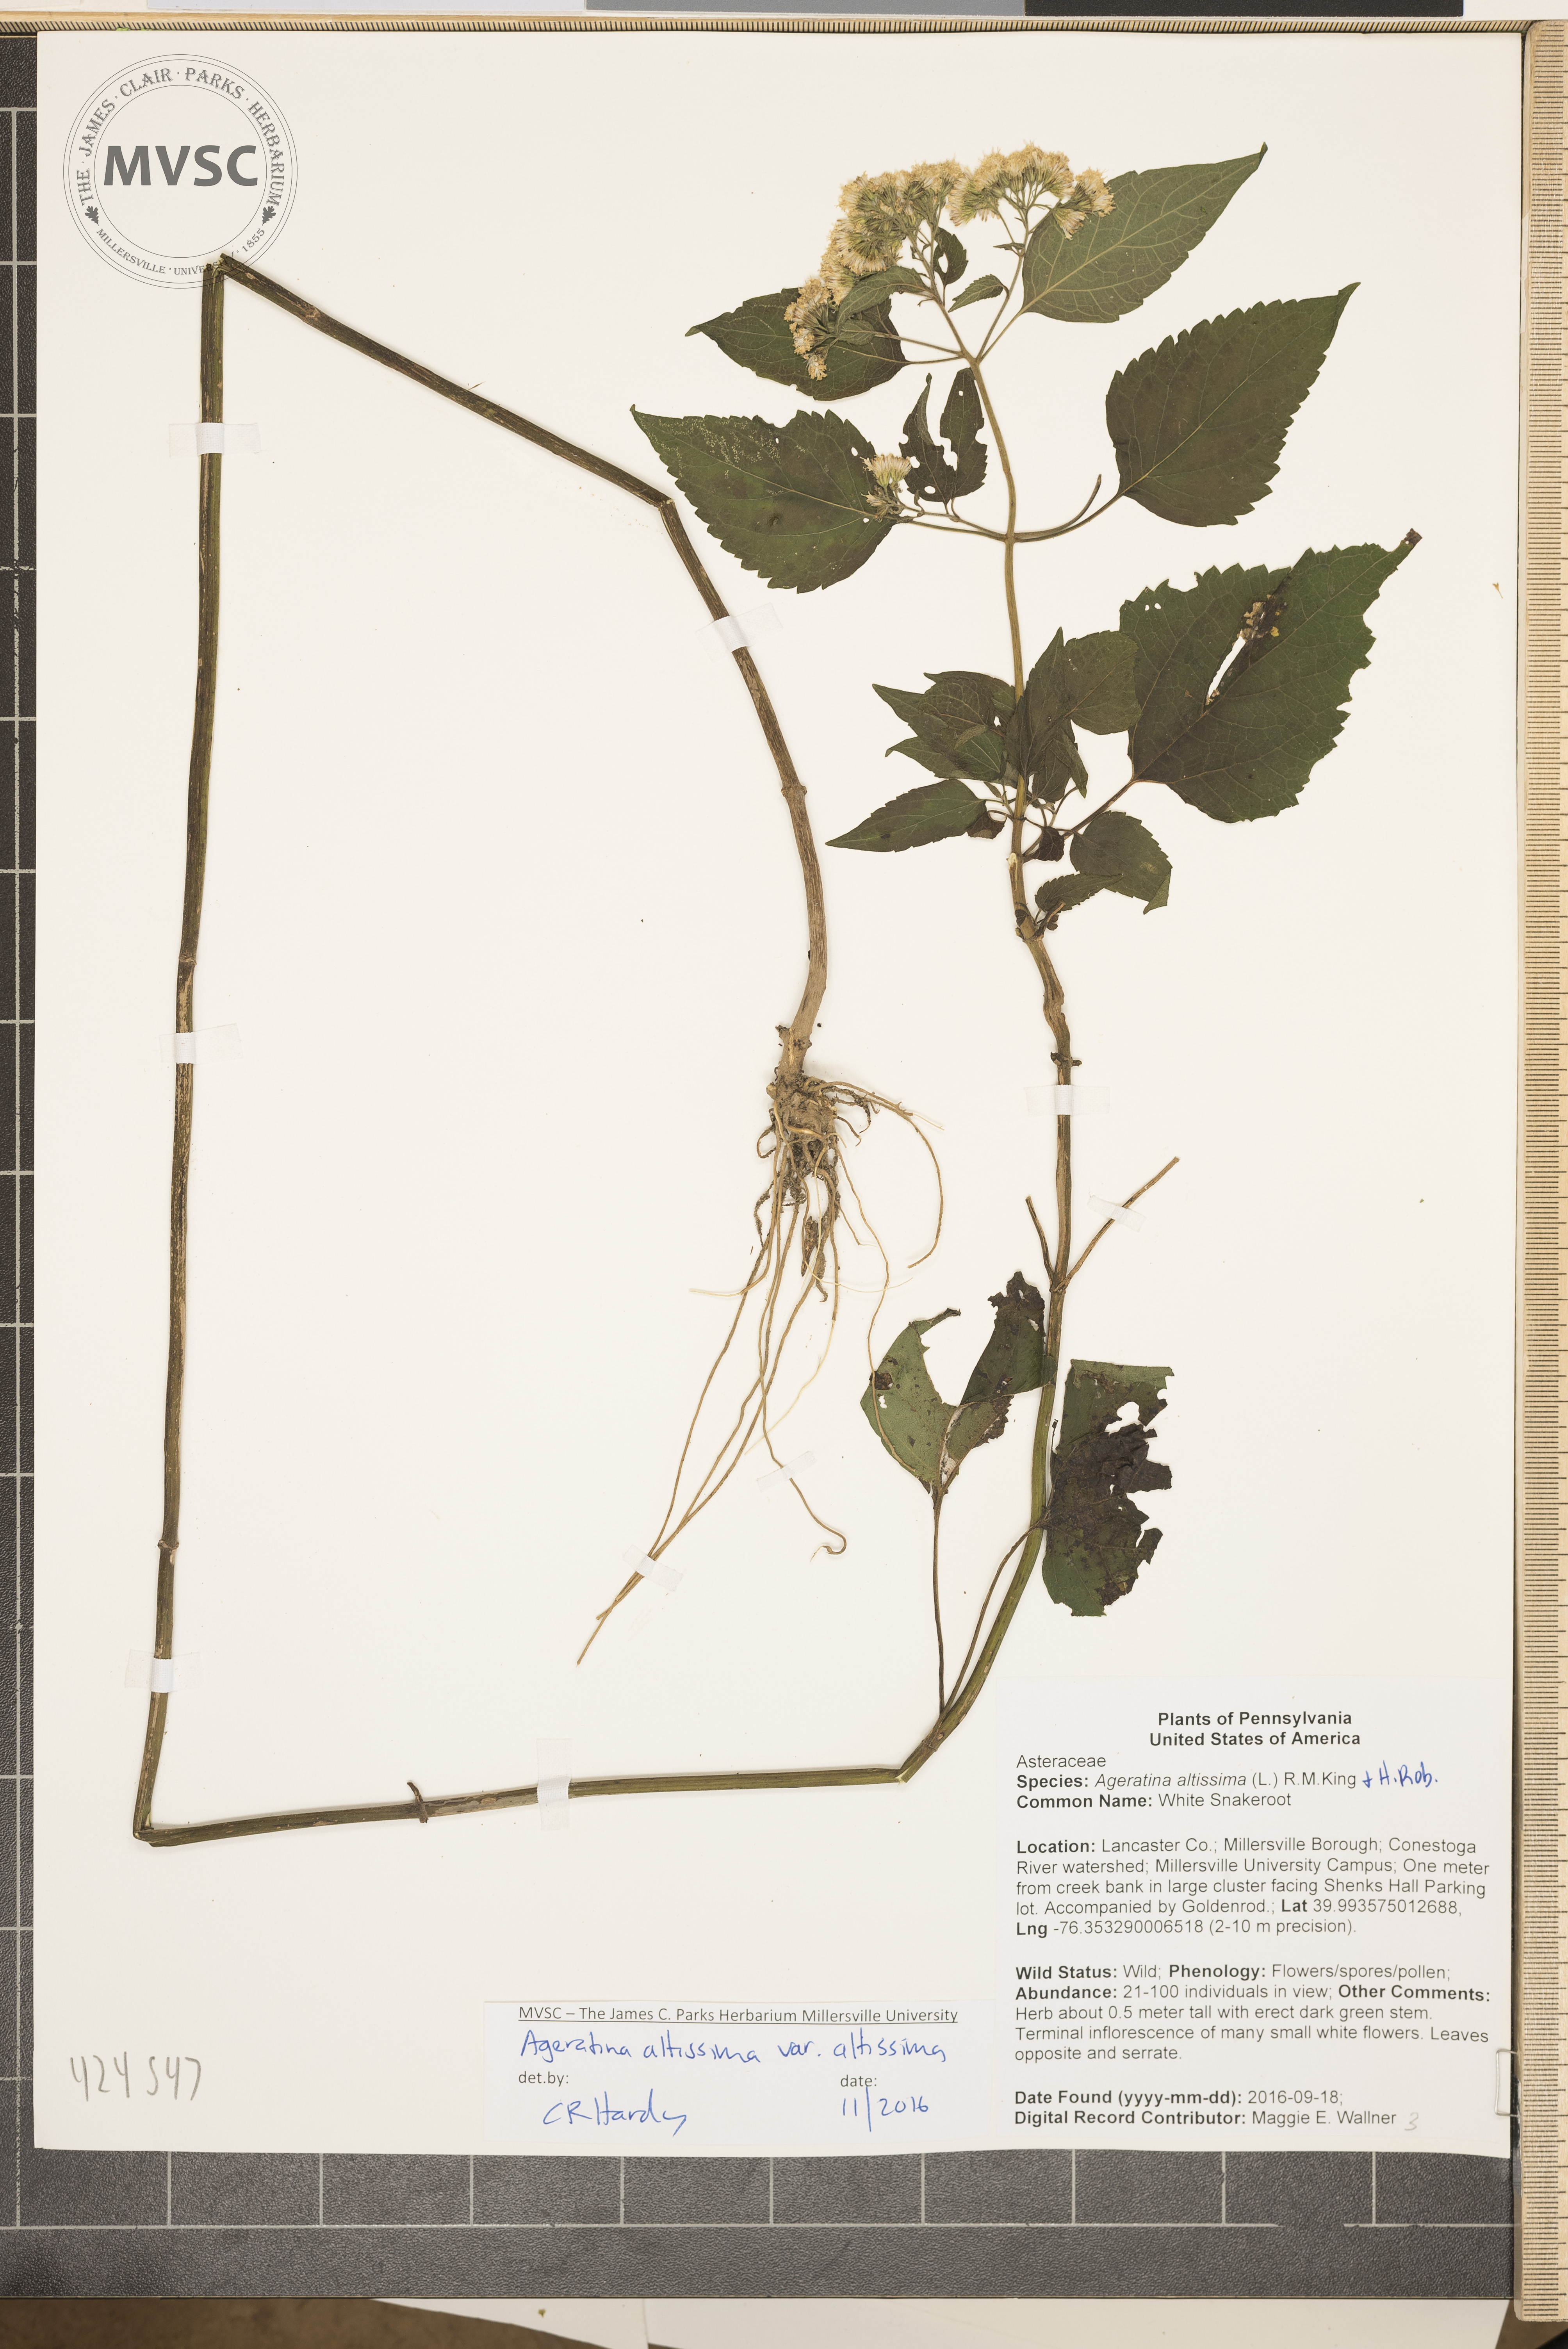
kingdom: Plantae
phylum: Tracheophyta
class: Magnoliopsida
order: Asterales
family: Asteraceae
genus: Ageratina
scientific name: Ageratina altissima
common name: White Snakeroot
